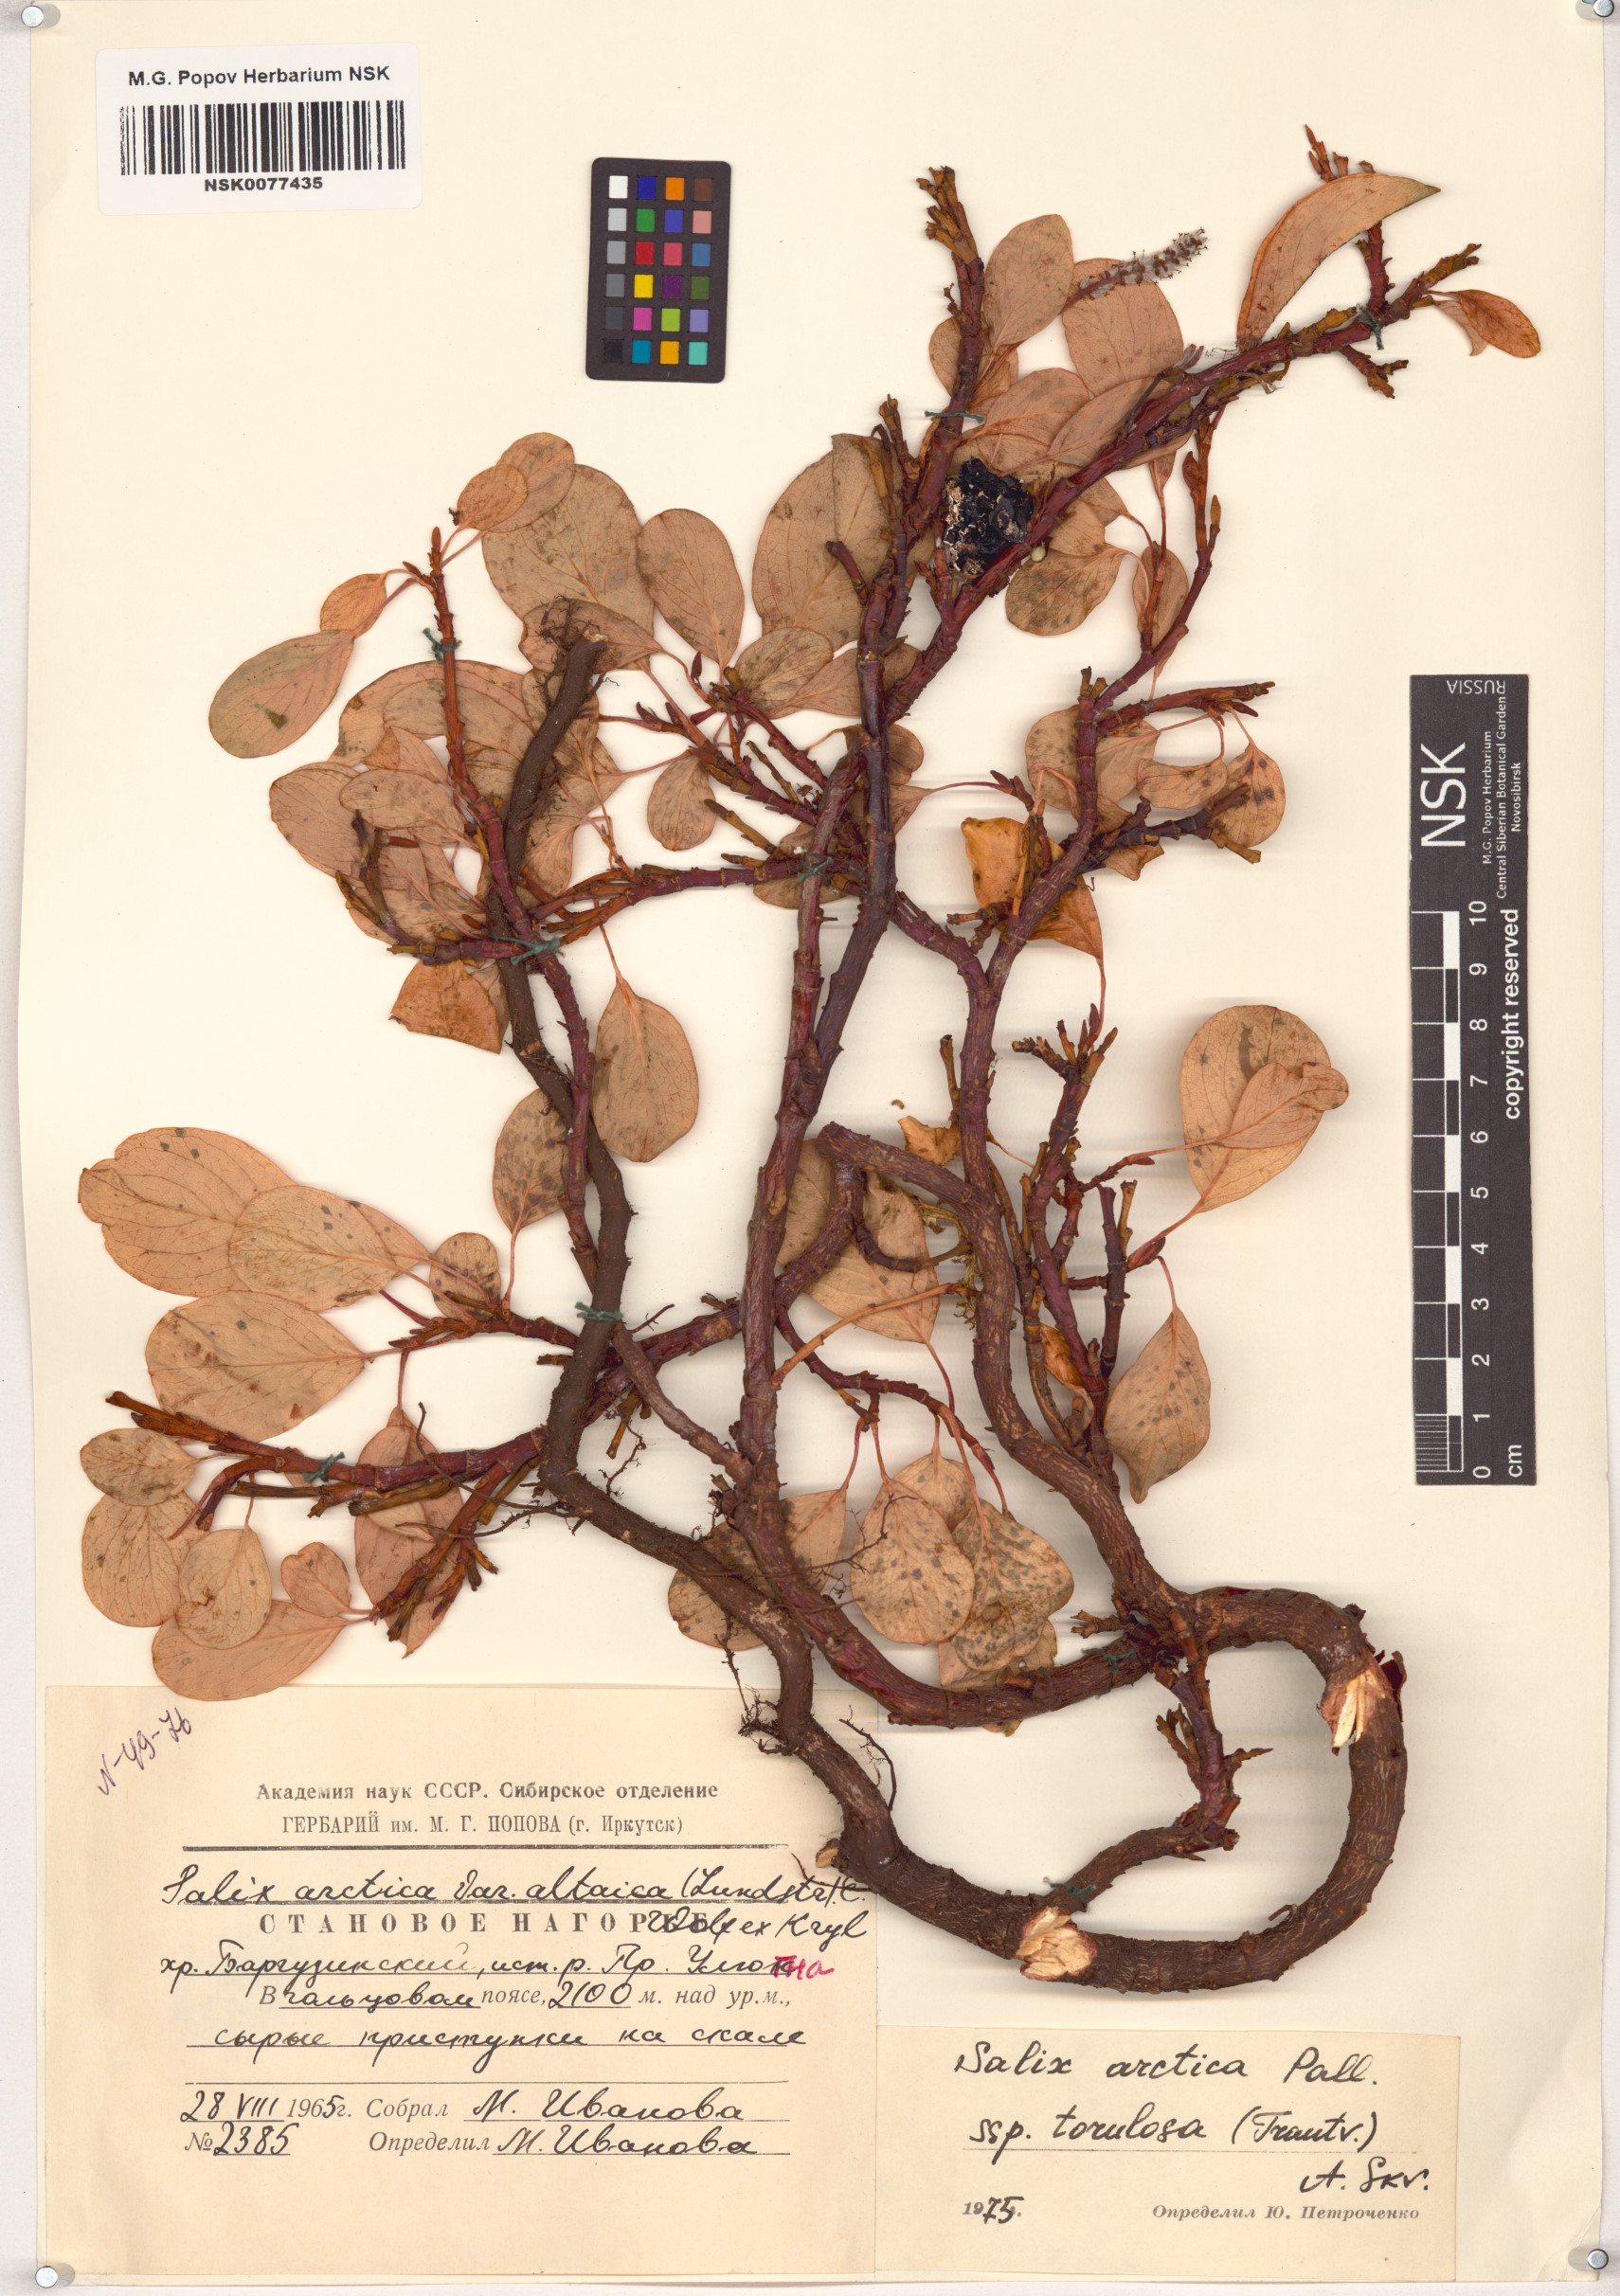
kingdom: Plantae
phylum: Tracheophyta
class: Magnoliopsida
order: Malpighiales
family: Salicaceae
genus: Salix
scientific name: Salix arctica
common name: Arctic willow
